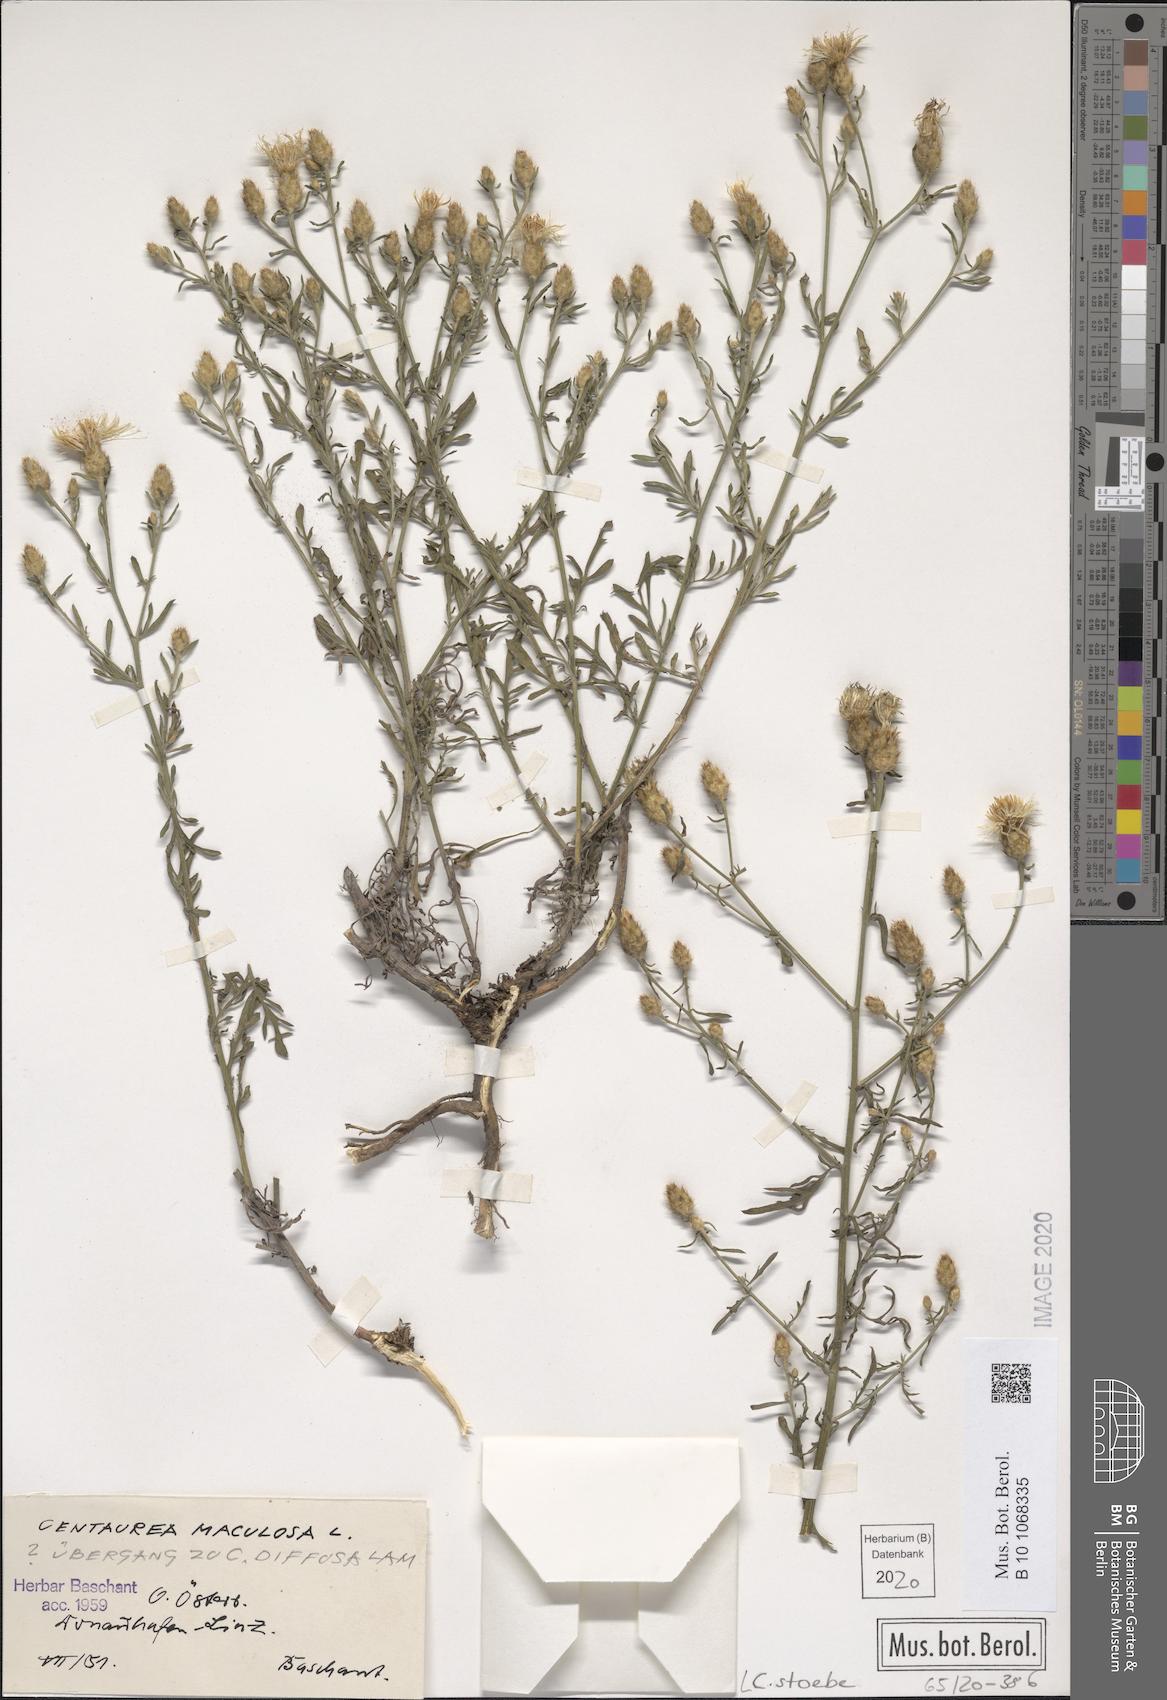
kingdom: Plantae
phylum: Tracheophyta
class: Magnoliopsida
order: Asterales
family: Asteraceae
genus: Centaurea
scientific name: Centaurea stoebe
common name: Spotted knapweed
